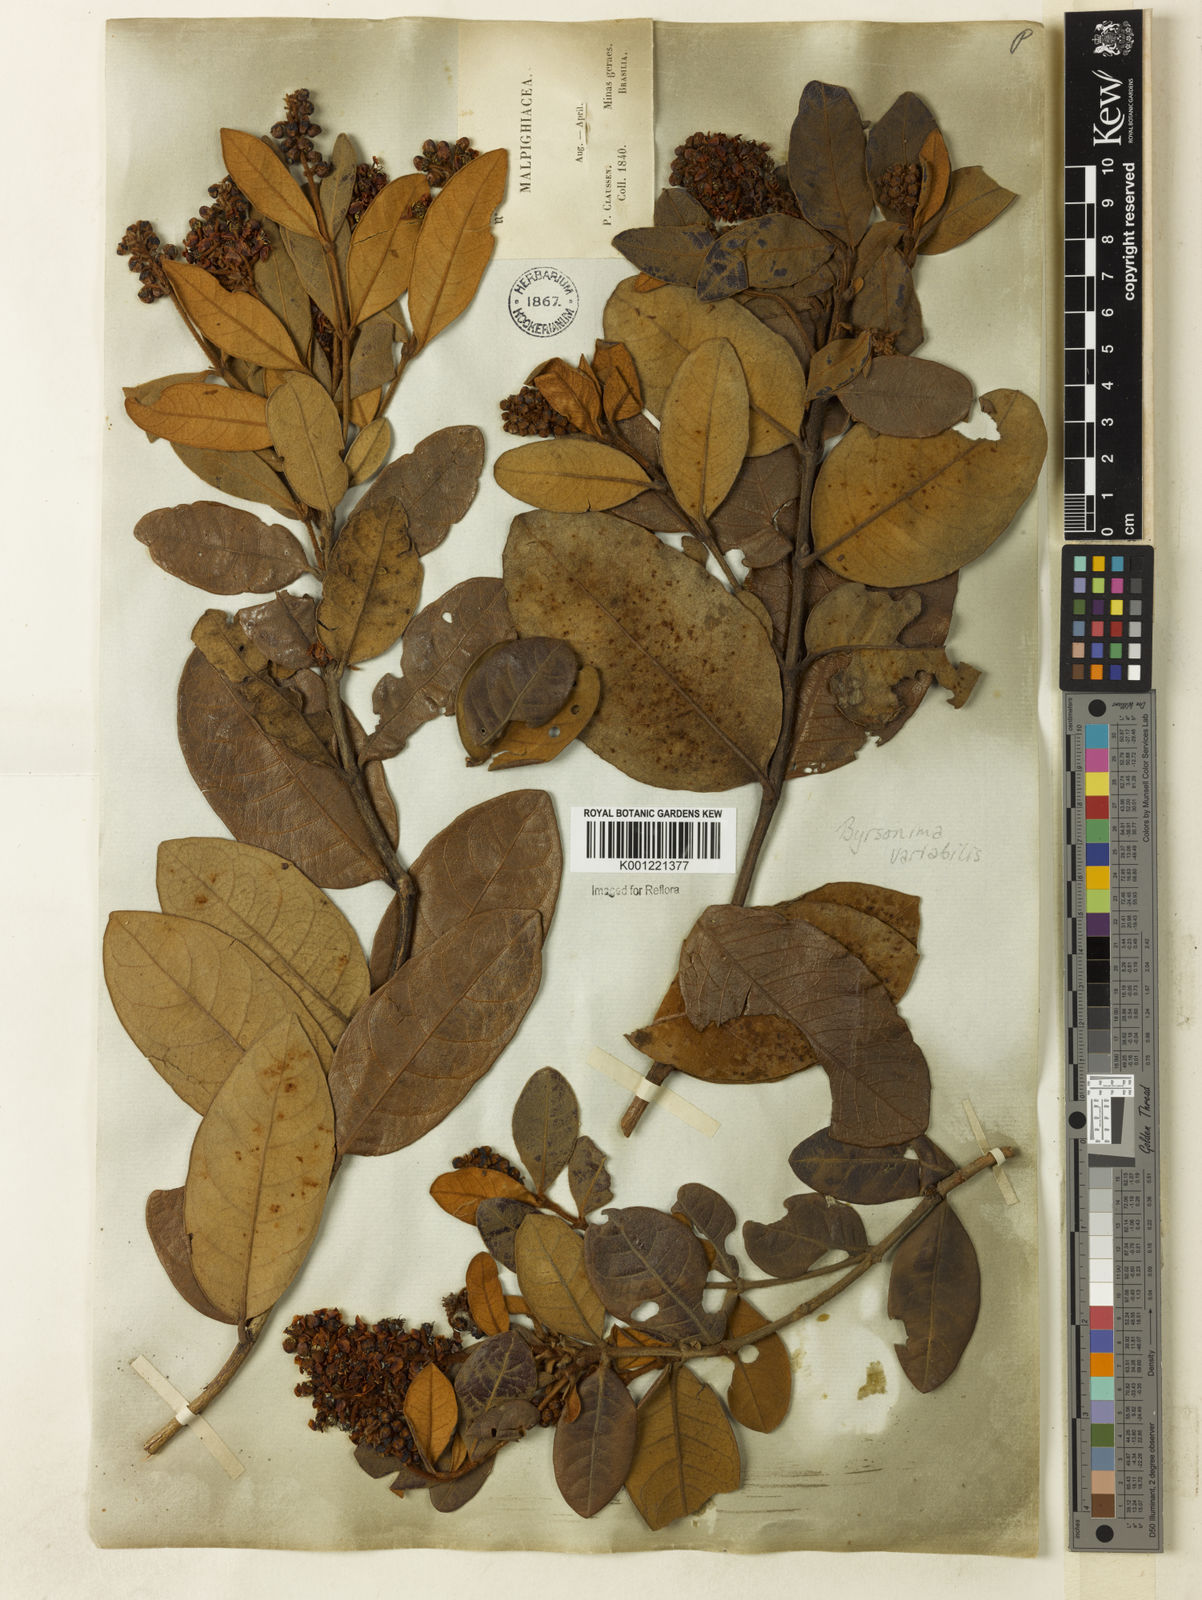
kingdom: Plantae
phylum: Tracheophyta
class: Magnoliopsida
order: Malpighiales
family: Malpighiaceae
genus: Byrsonima
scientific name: Byrsonima variabilis
